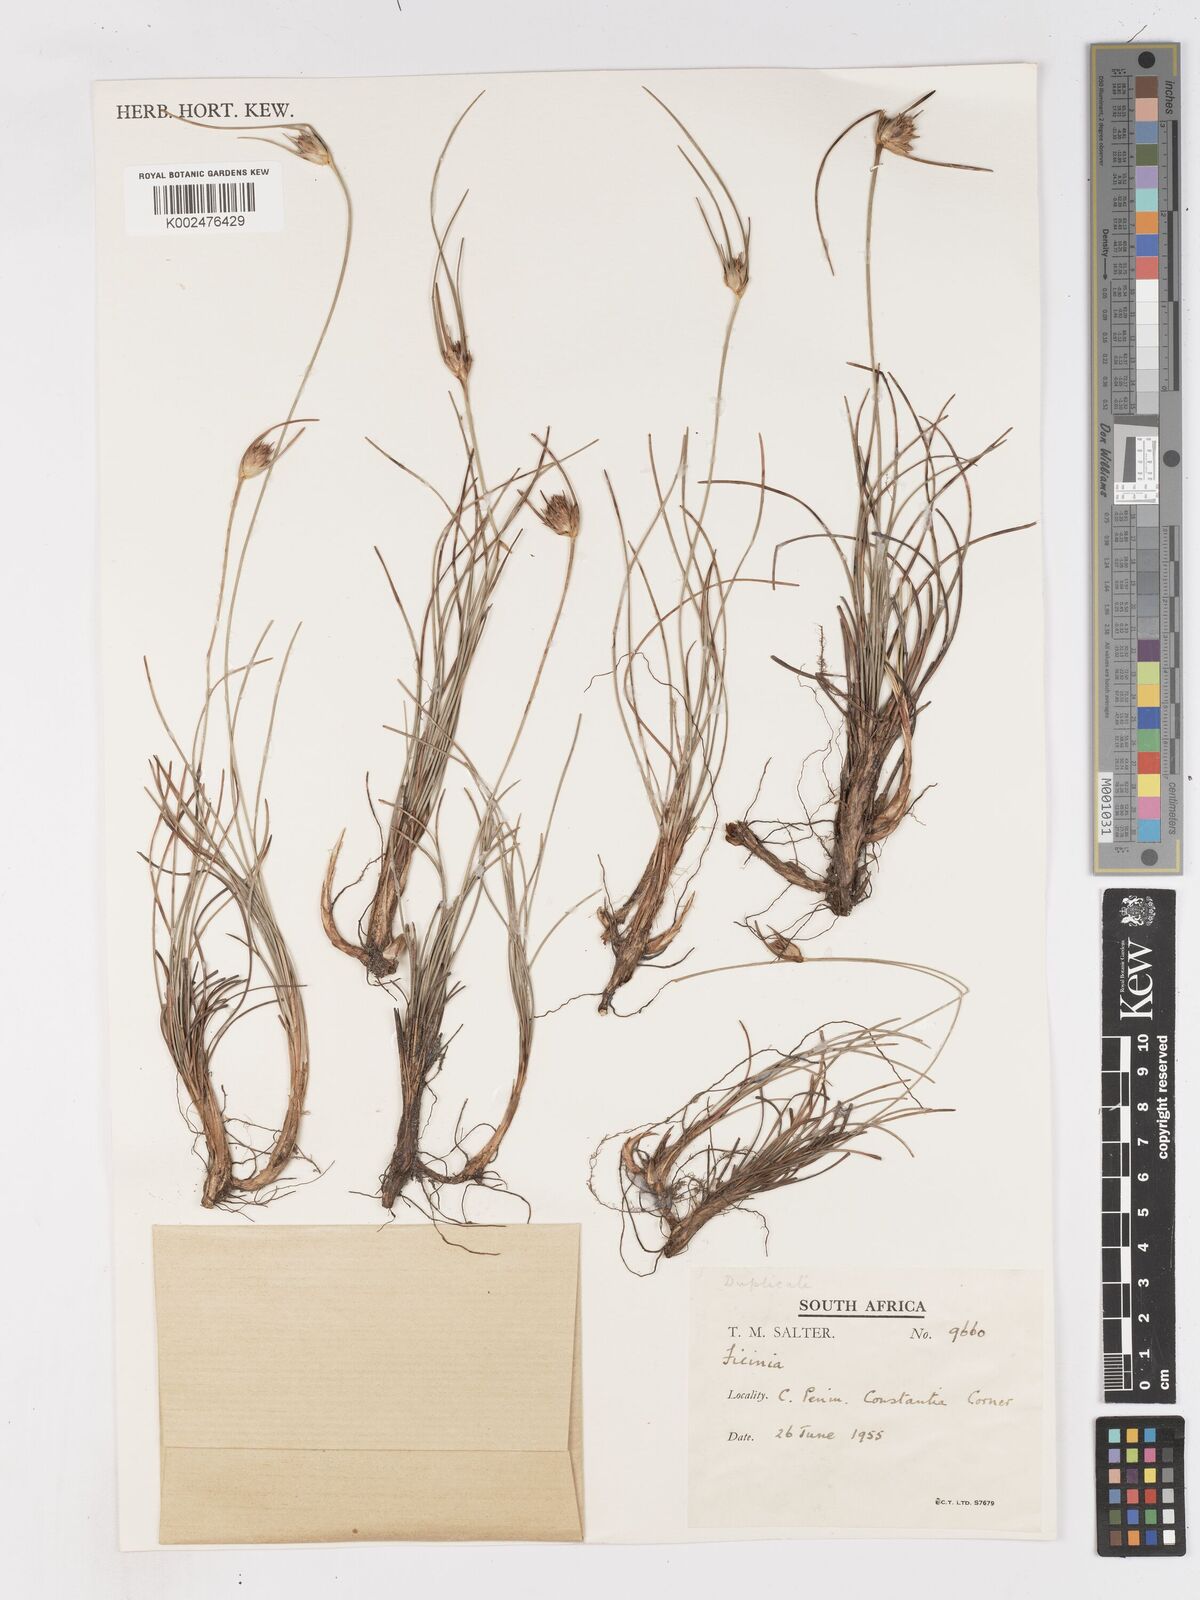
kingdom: Plantae
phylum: Tracheophyta
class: Liliopsida
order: Poales
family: Cyperaceae
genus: Ficinia
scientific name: Ficinia pallens
